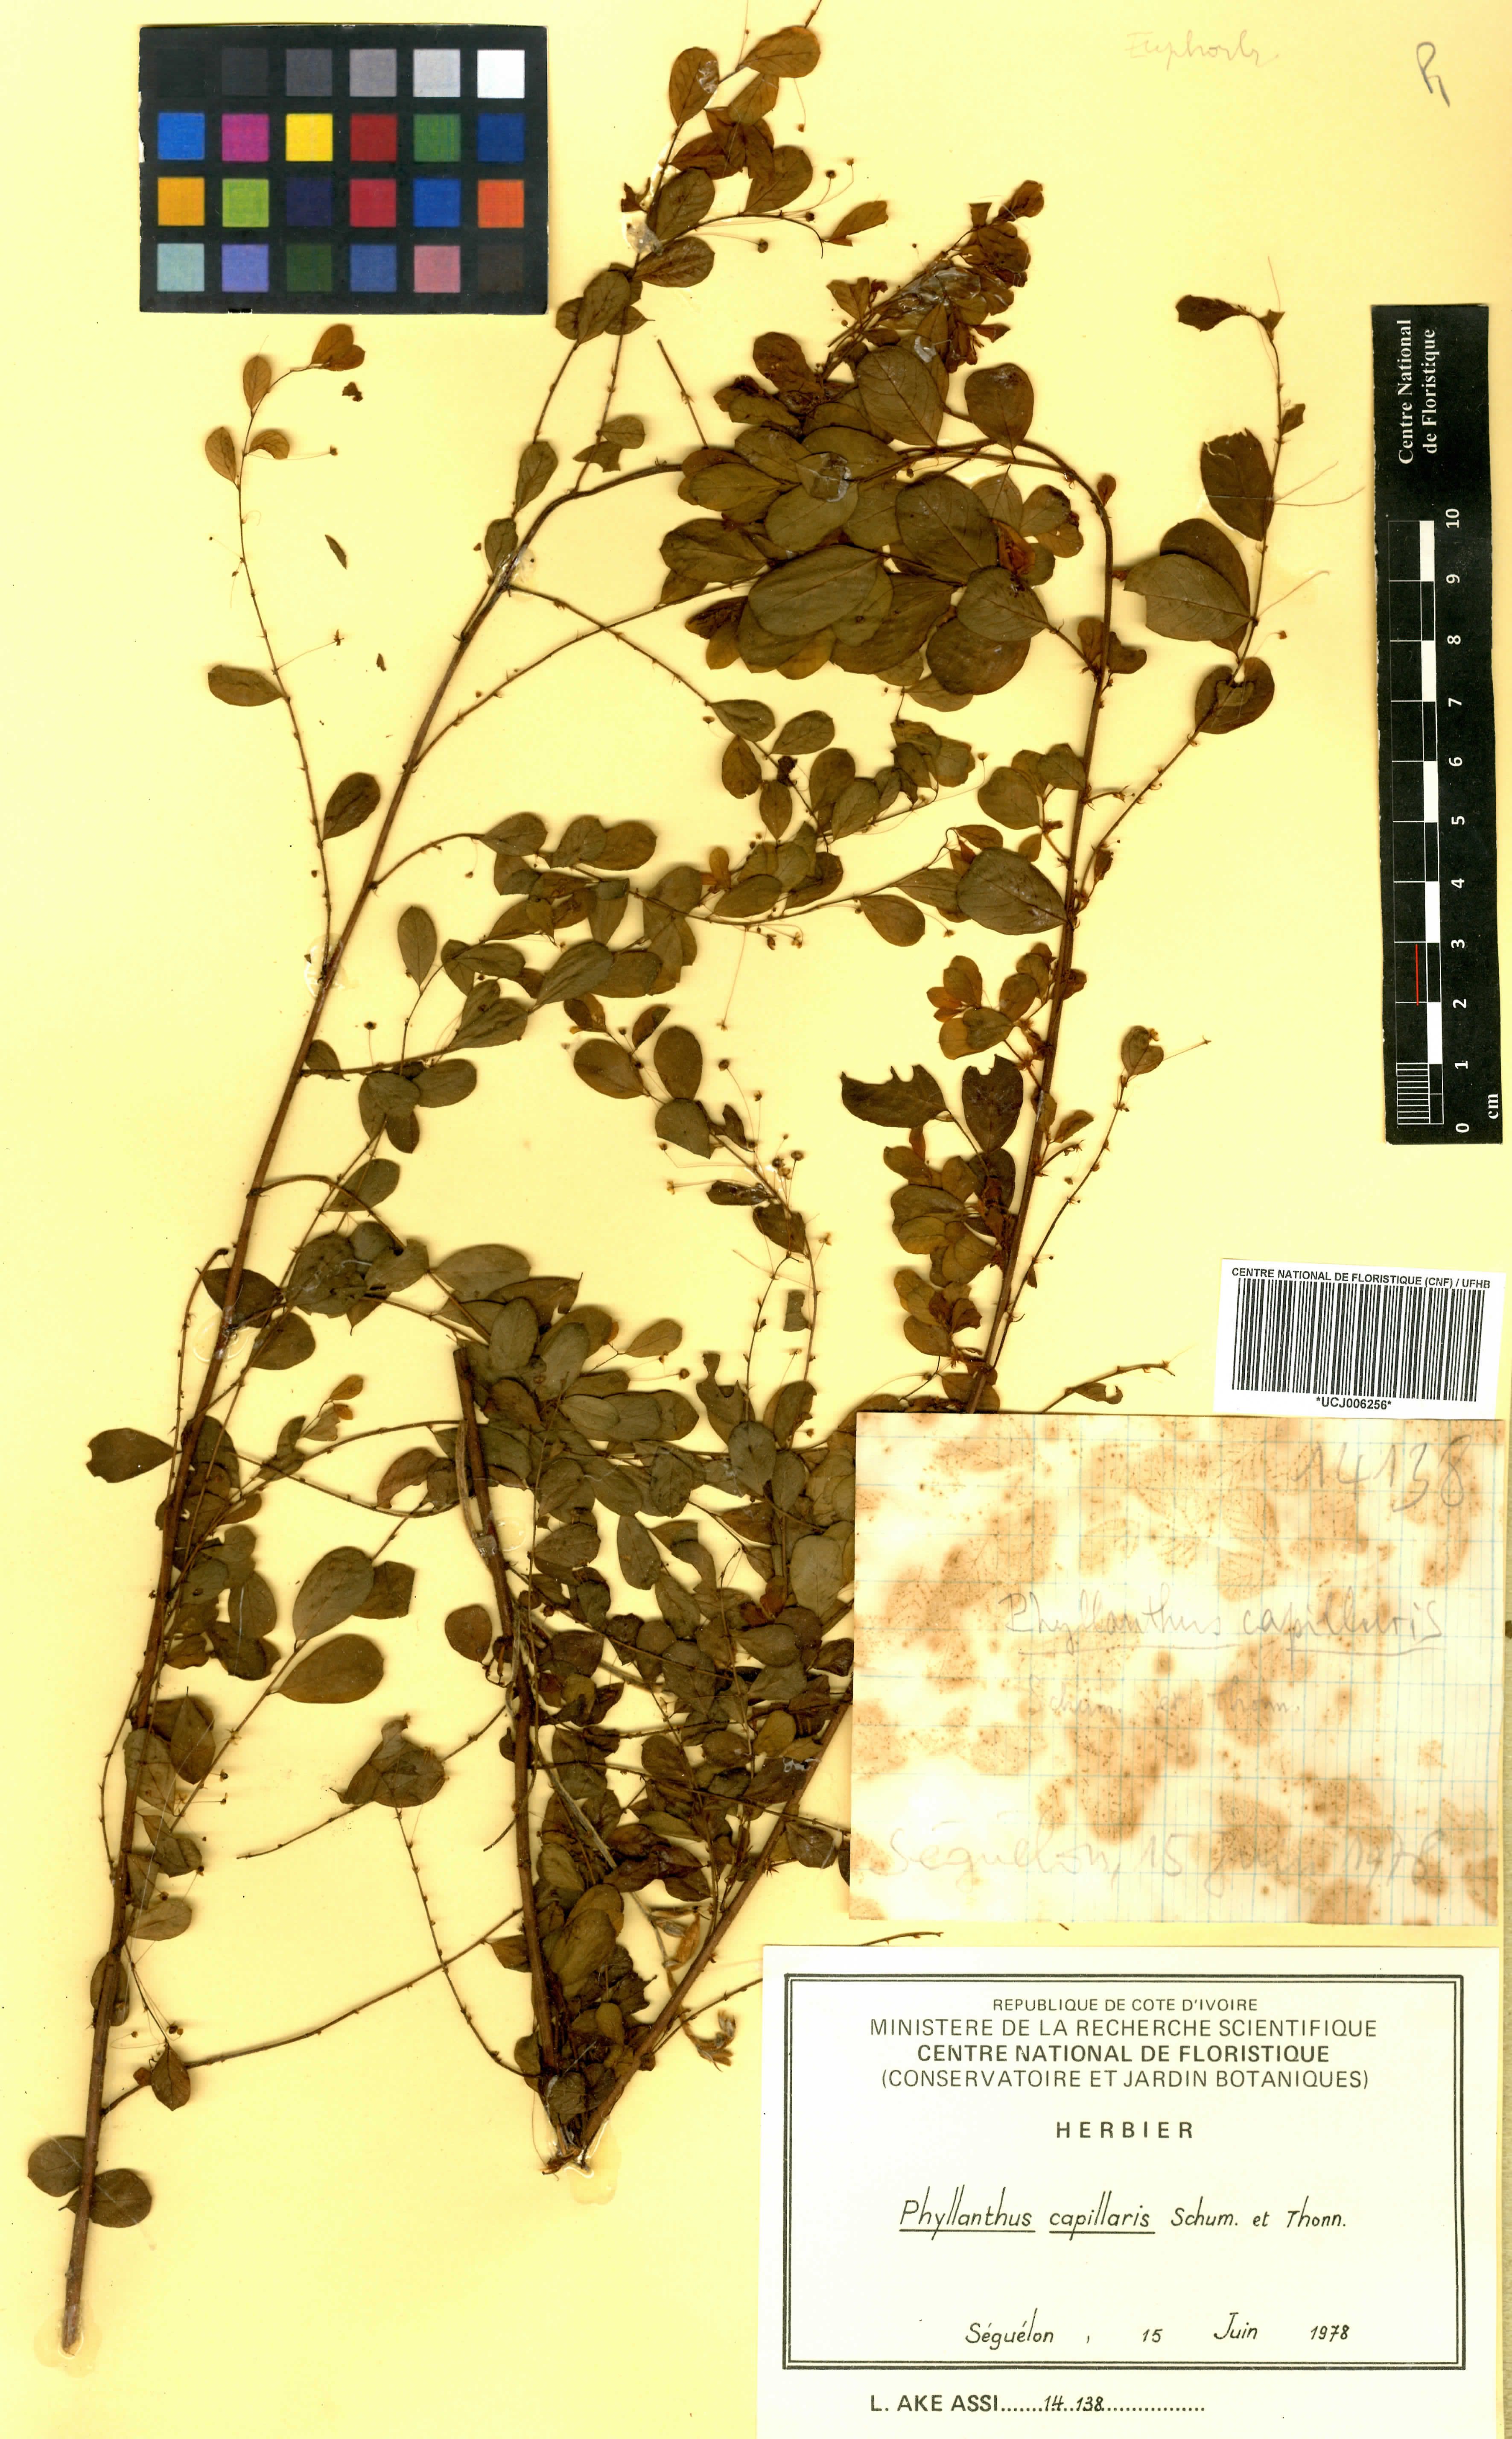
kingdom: Plantae
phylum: Tracheophyta
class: Magnoliopsida
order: Malpighiales
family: Phyllanthaceae
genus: Phyllanthus
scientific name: Phyllanthus nummulariifolius
